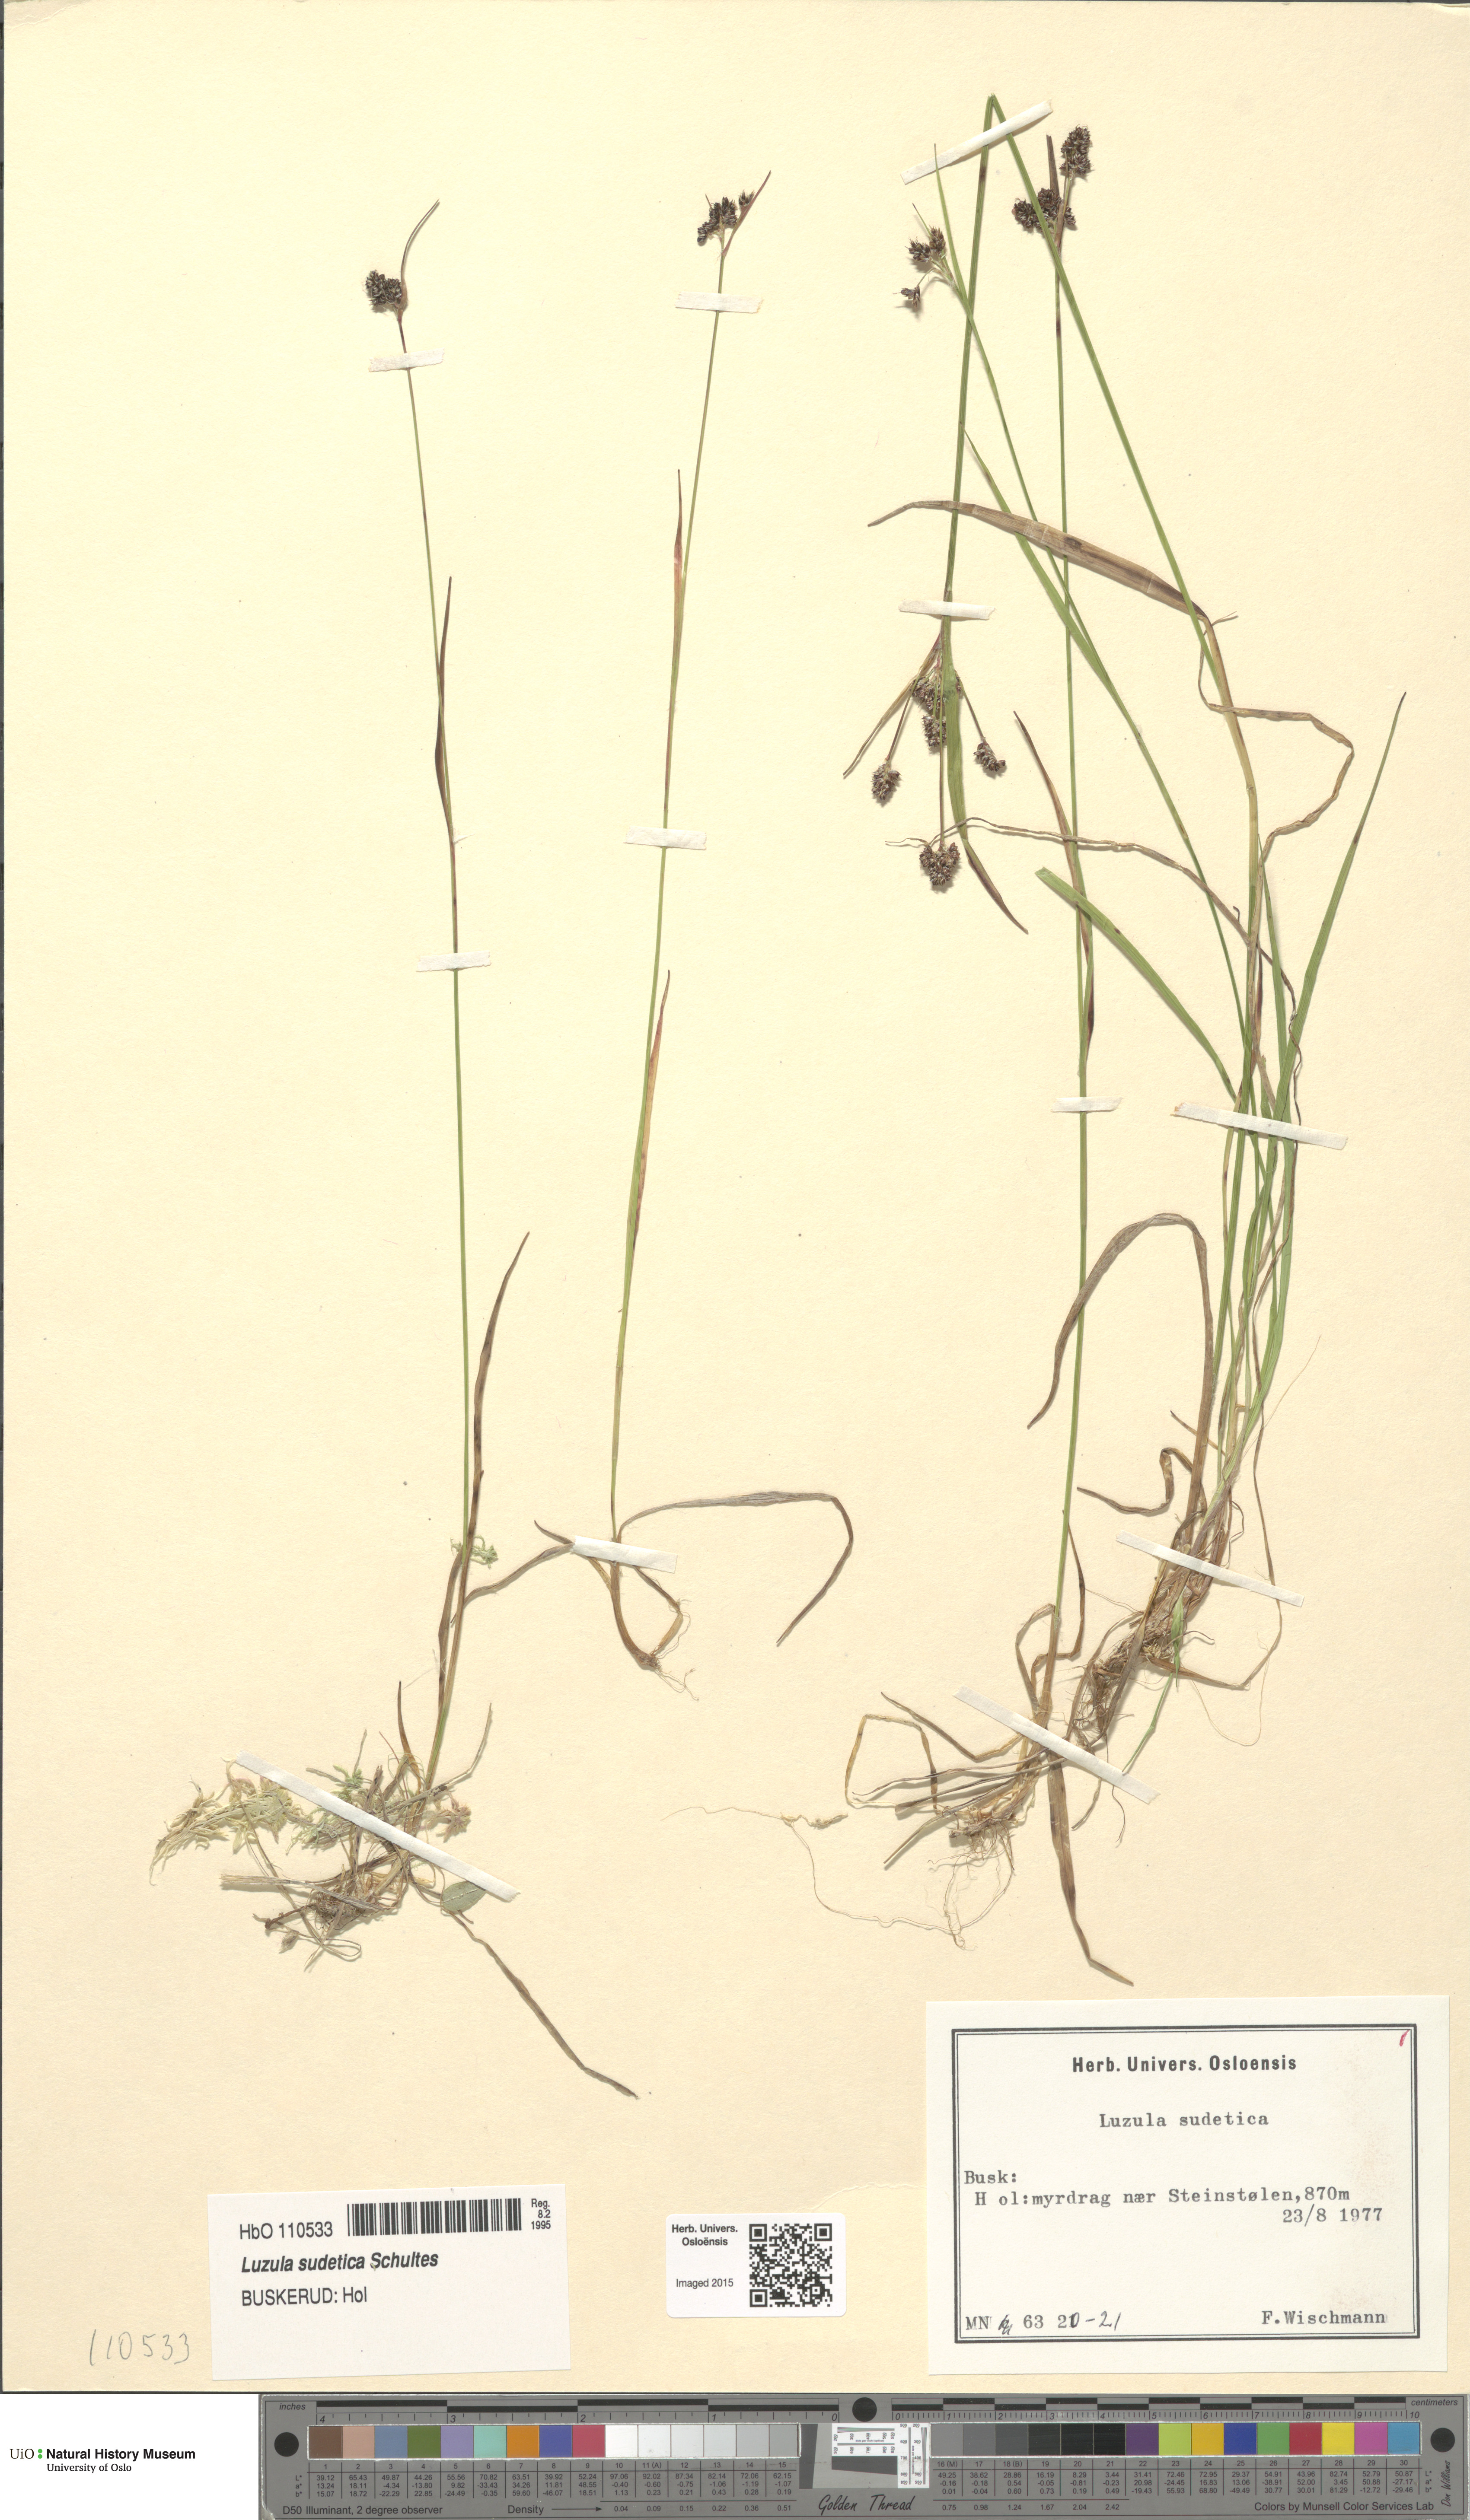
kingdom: Plantae
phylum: Tracheophyta
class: Liliopsida
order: Poales
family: Juncaceae
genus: Luzula
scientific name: Luzula sudetica
